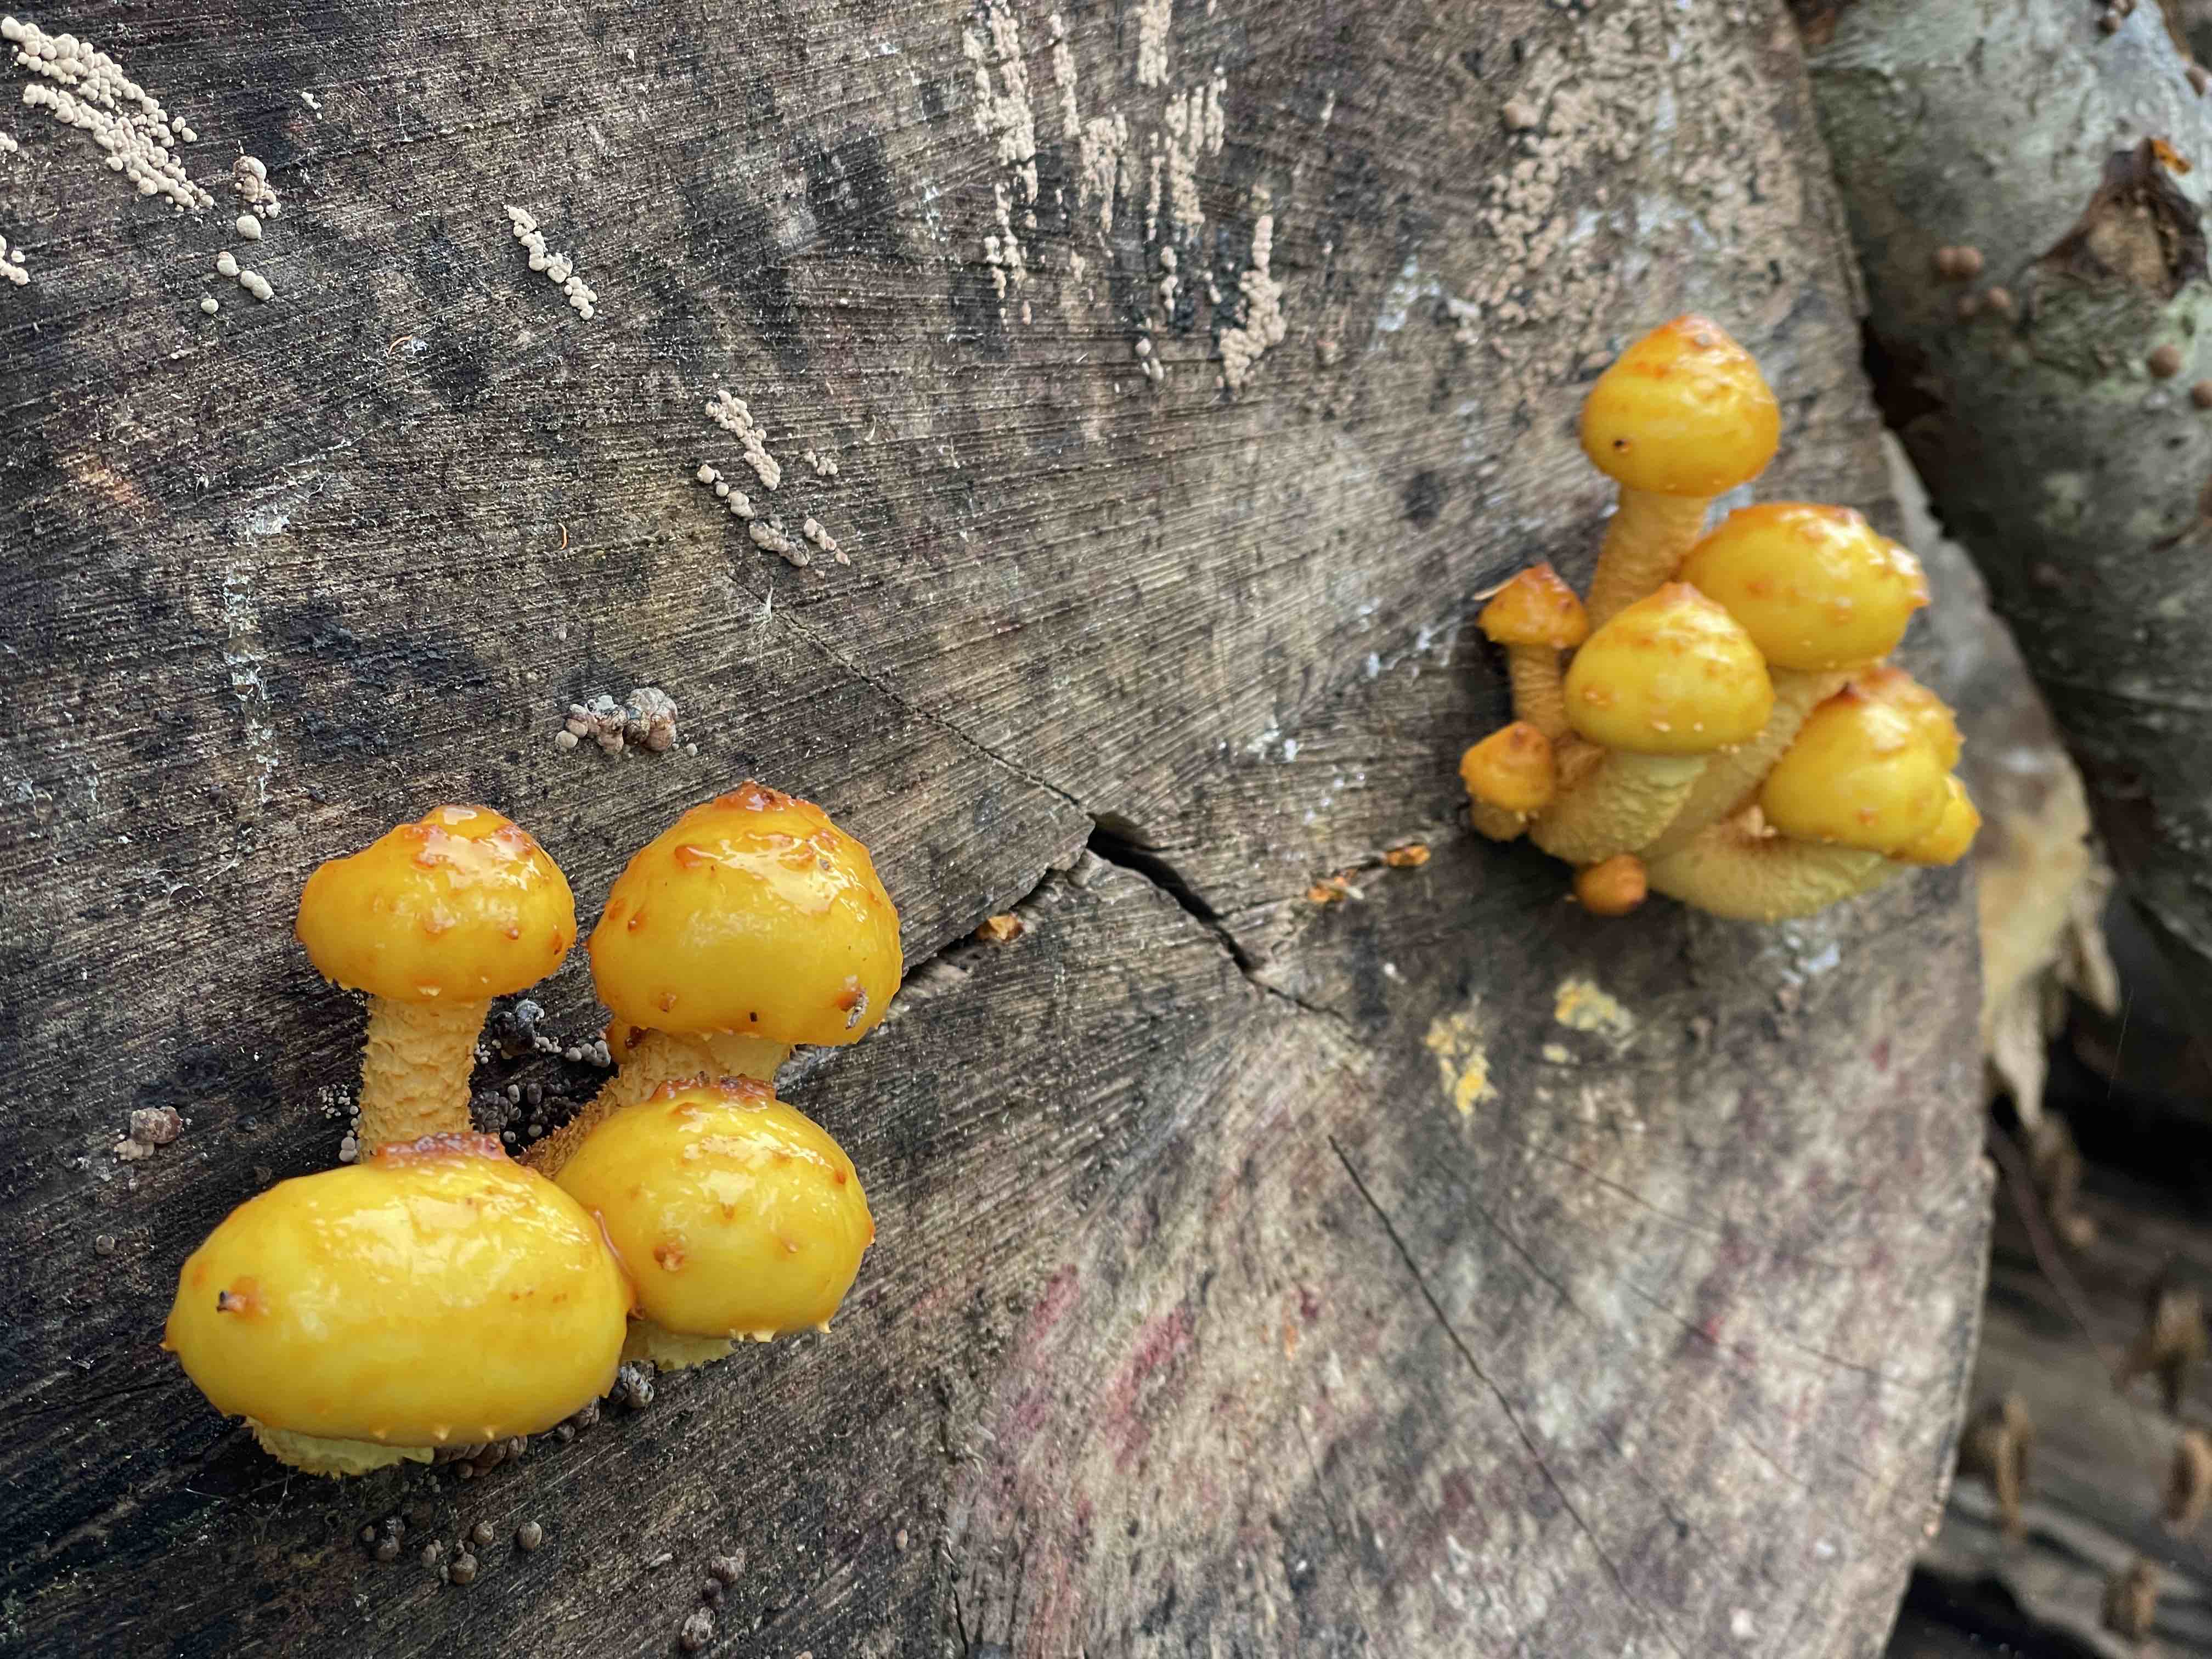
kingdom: Fungi
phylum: Basidiomycota
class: Agaricomycetes
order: Agaricales
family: Strophariaceae
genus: Pholiota
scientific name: Pholiota adiposa
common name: højtsiddende skælhat
